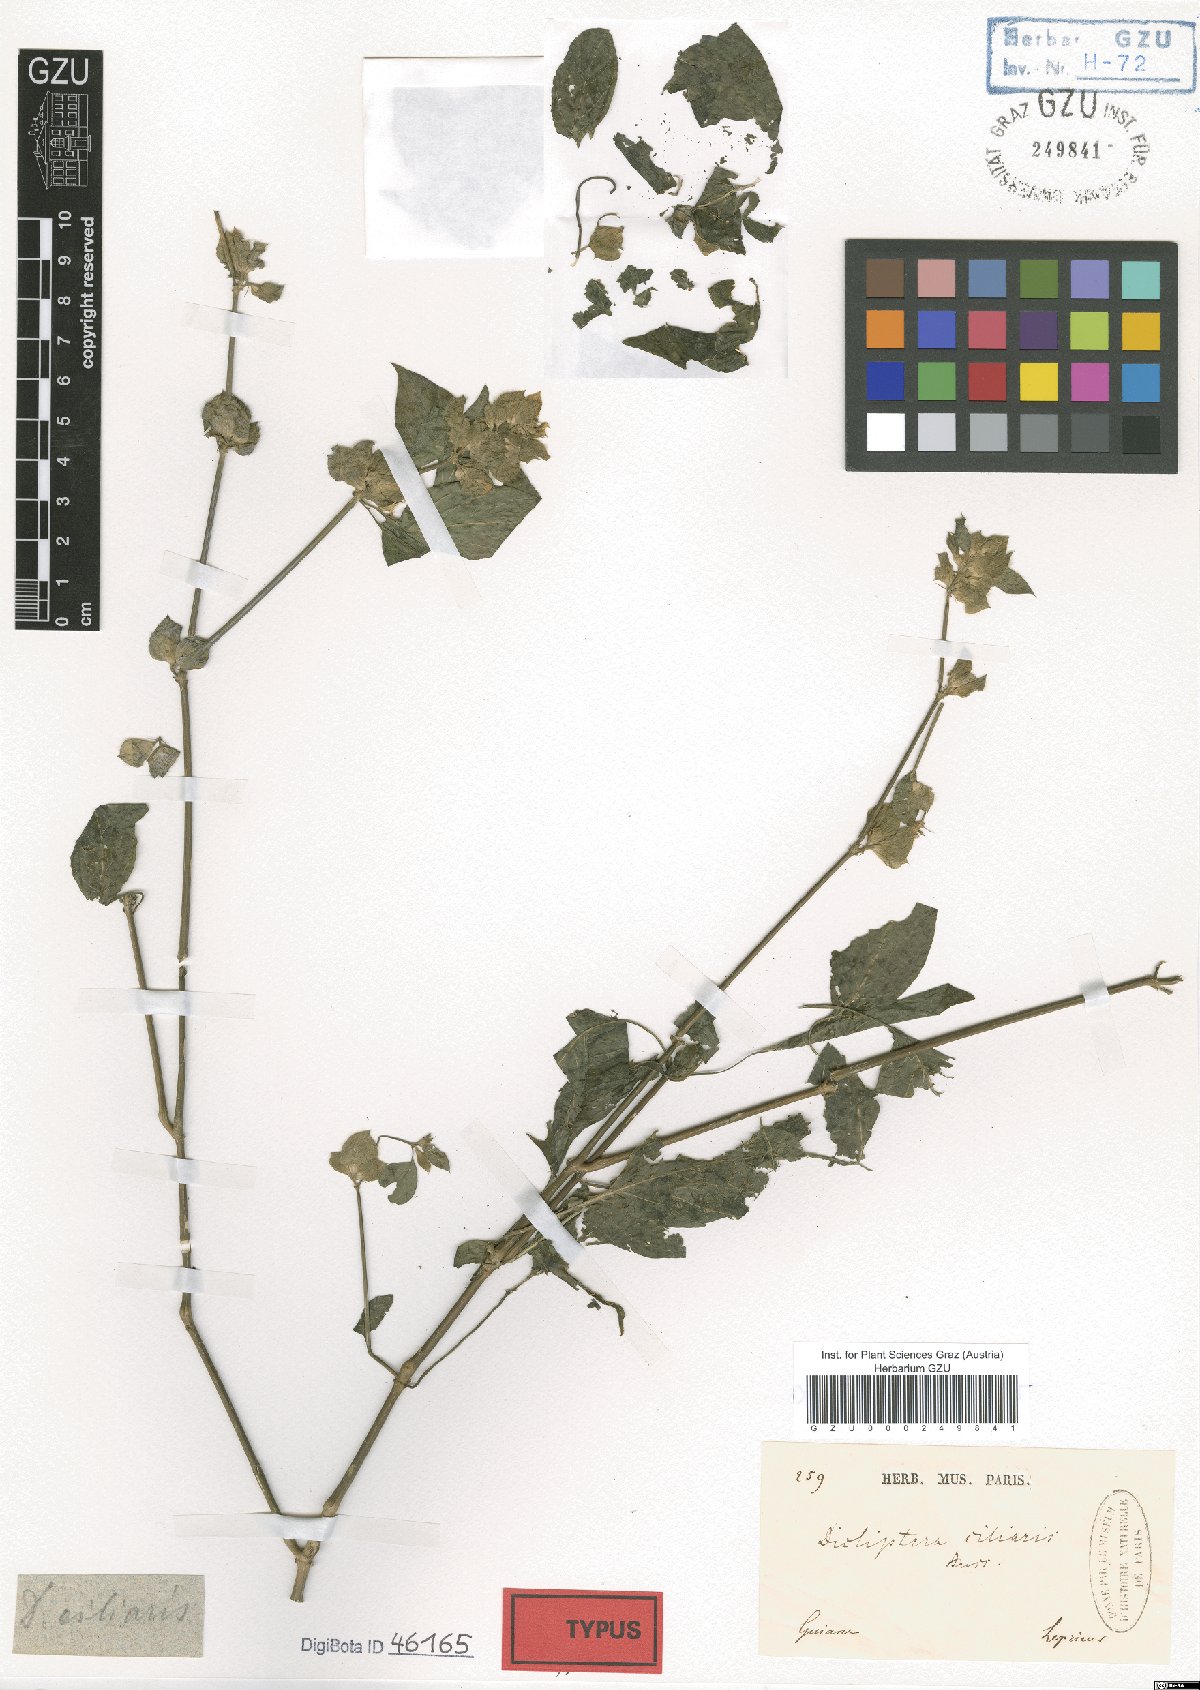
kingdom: Plantae
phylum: Tracheophyta
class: Magnoliopsida
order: Lamiales
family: Acanthaceae
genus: Dicliptera
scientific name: Dicliptera ciliaris
